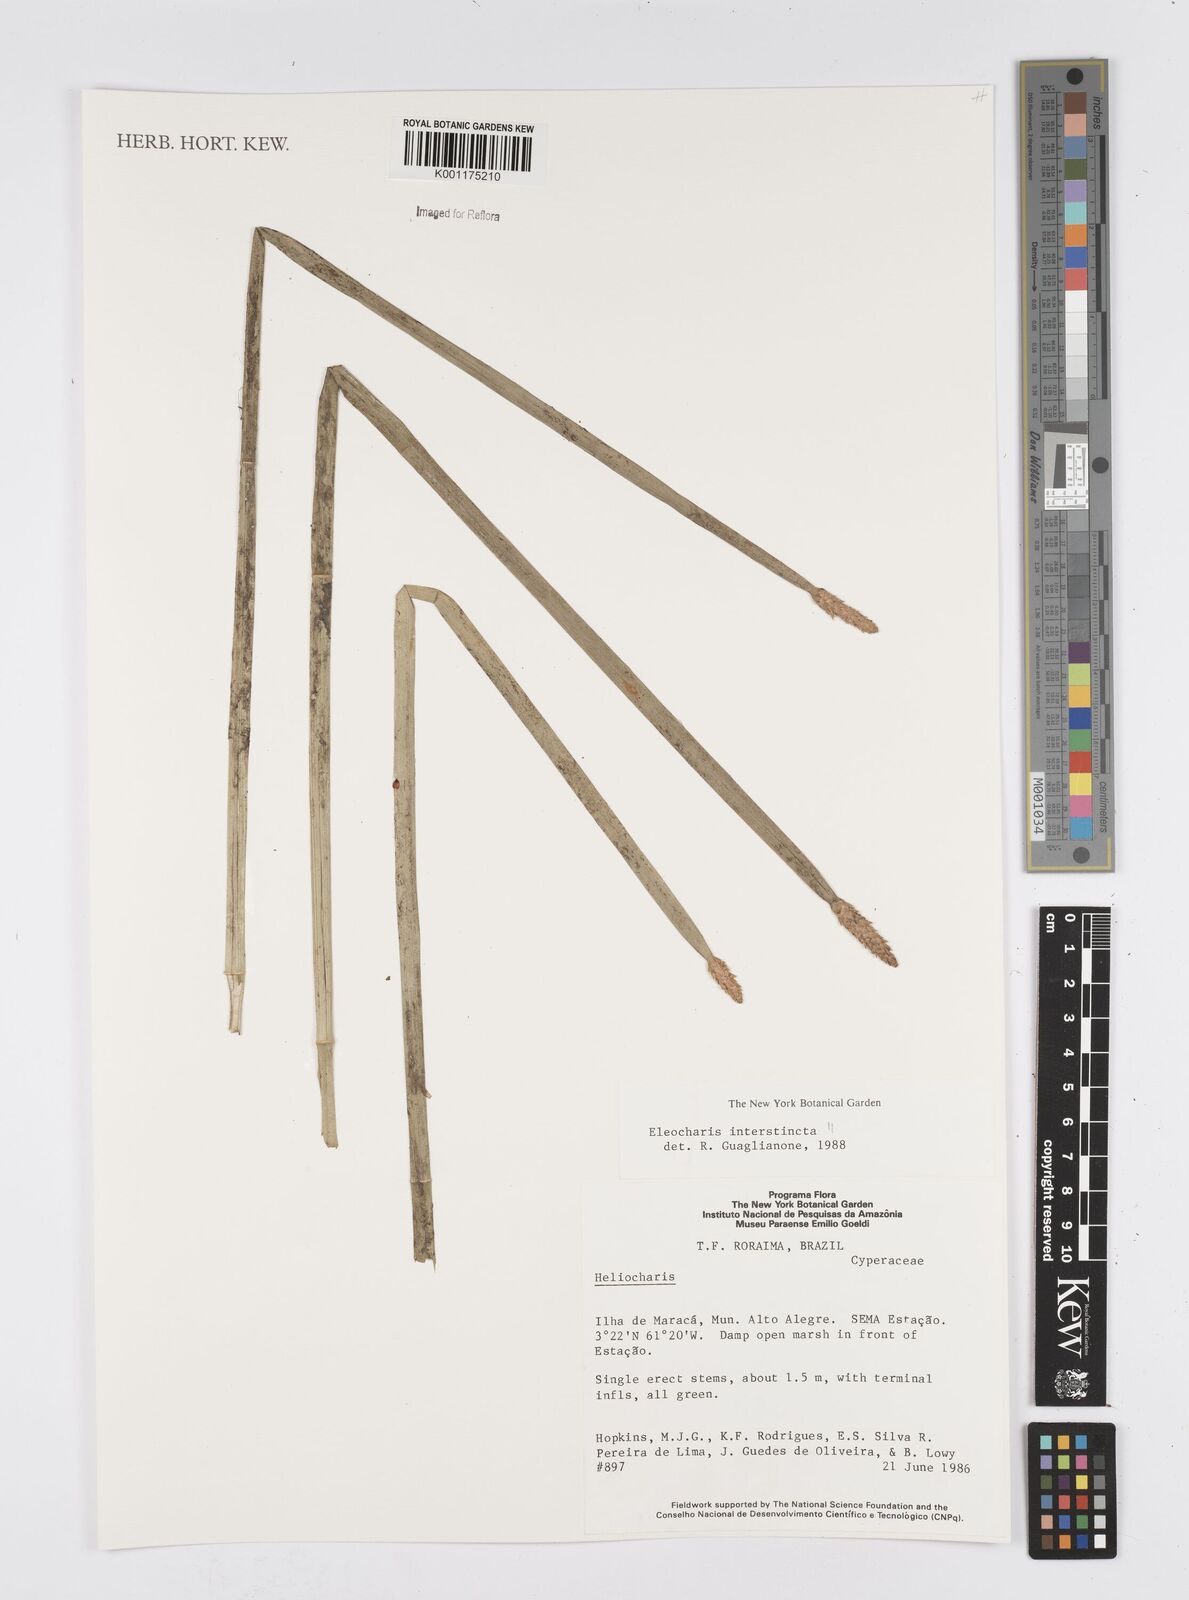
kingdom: Plantae
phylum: Tracheophyta
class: Liliopsida
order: Poales
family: Cyperaceae
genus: Eleocharis
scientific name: Eleocharis interstincta
